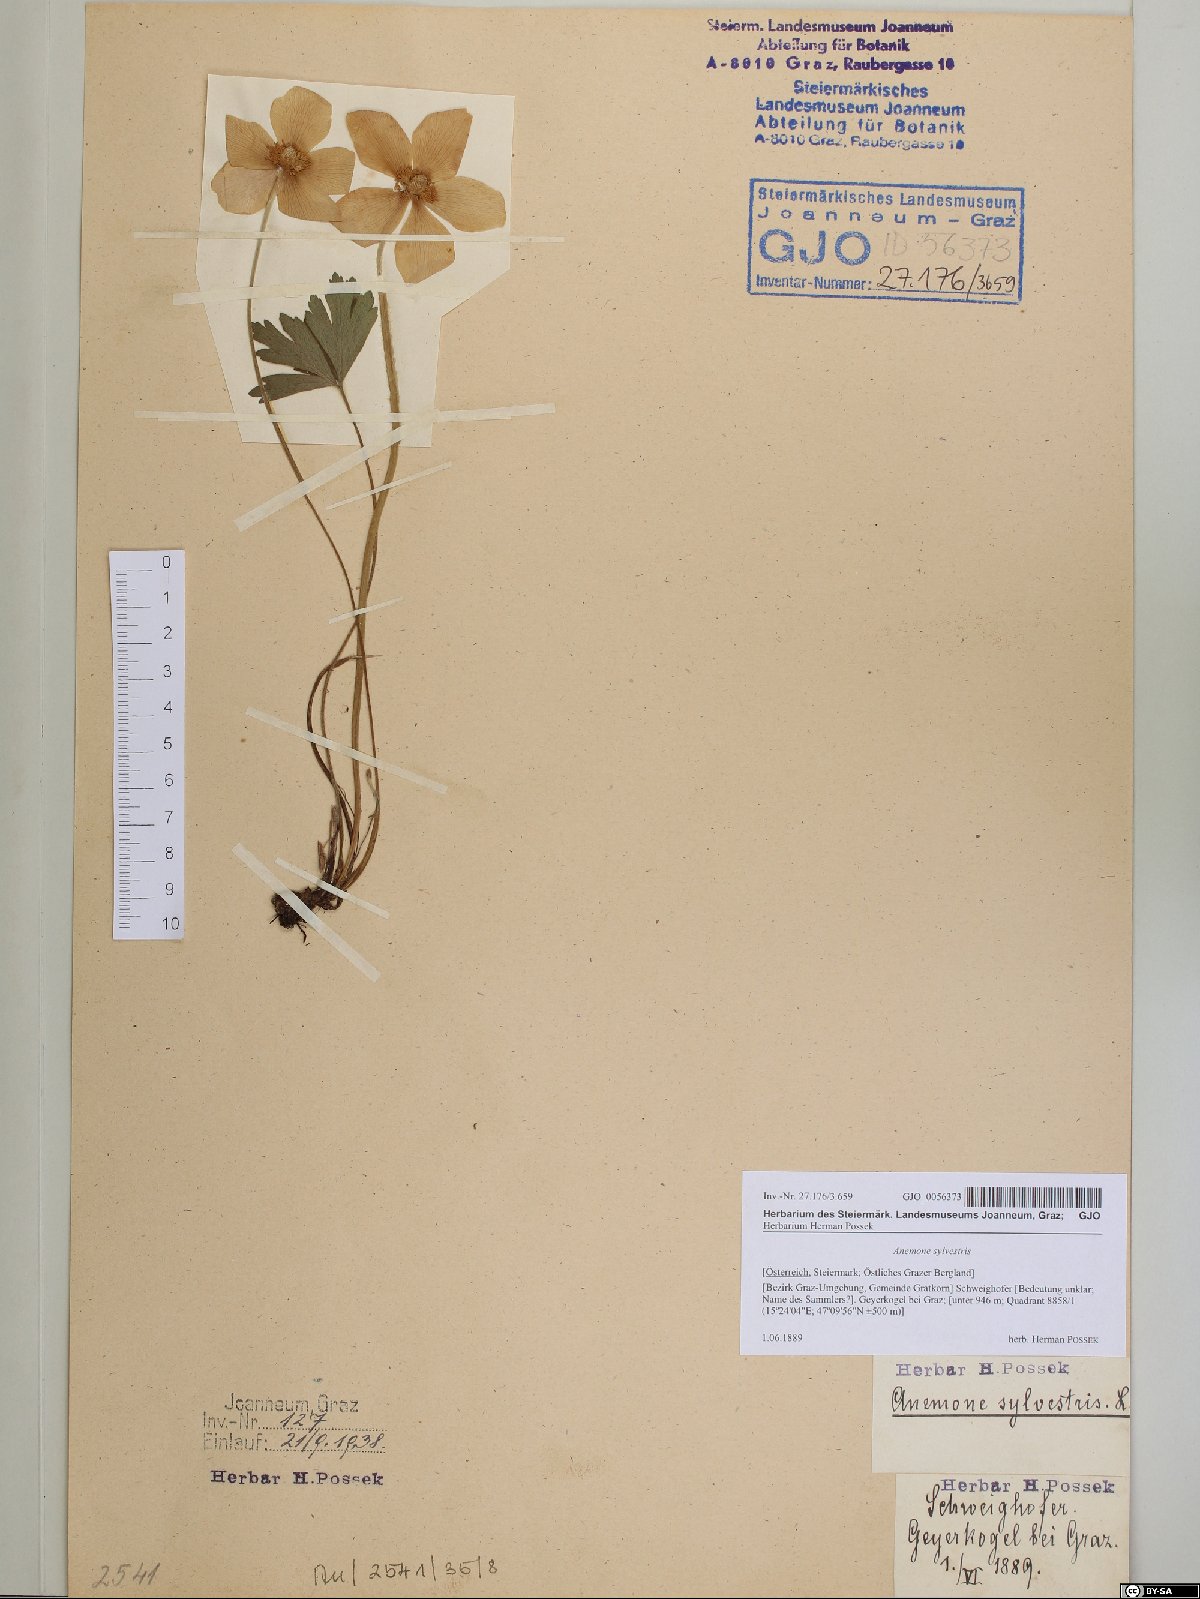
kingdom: Plantae
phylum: Tracheophyta
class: Magnoliopsida
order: Ranunculales
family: Ranunculaceae
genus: Anemone
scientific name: Anemone sylvestris
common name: Snowdrop anemone
